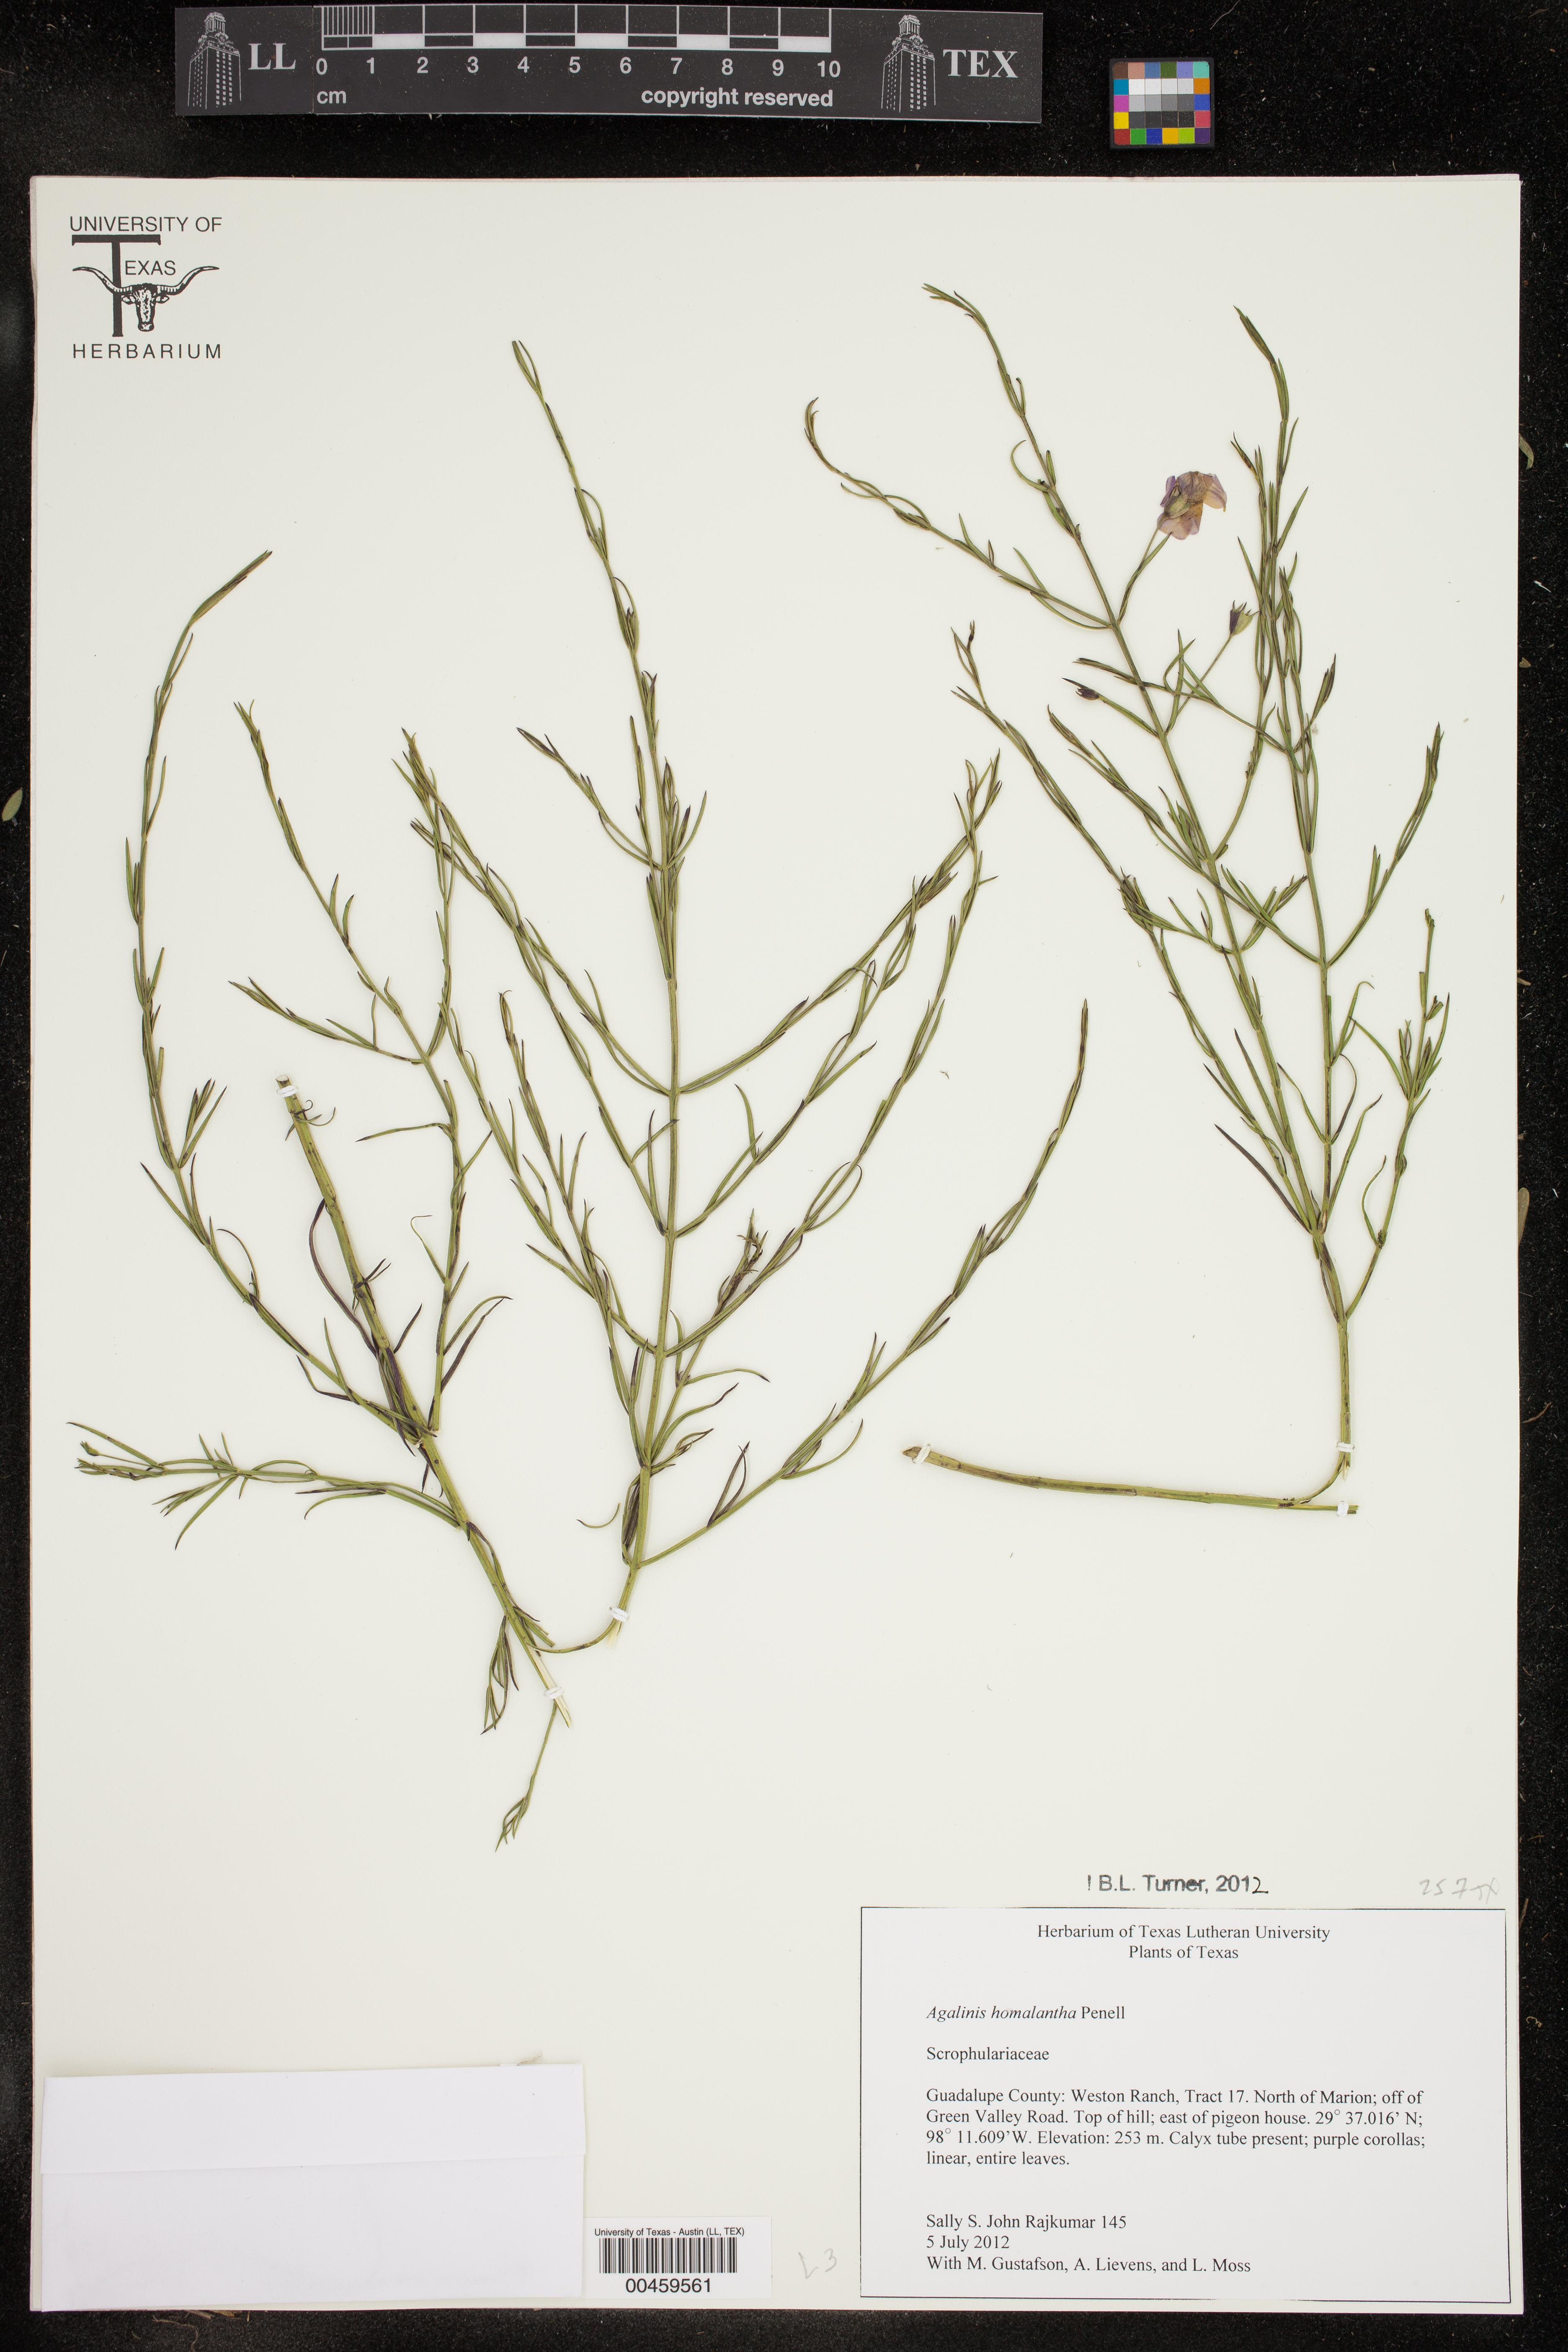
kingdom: Plantae
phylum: Tracheophyta
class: Magnoliopsida
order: Lamiales
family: Orobanchaceae
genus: Agalinis
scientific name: Agalinis strictifolia
